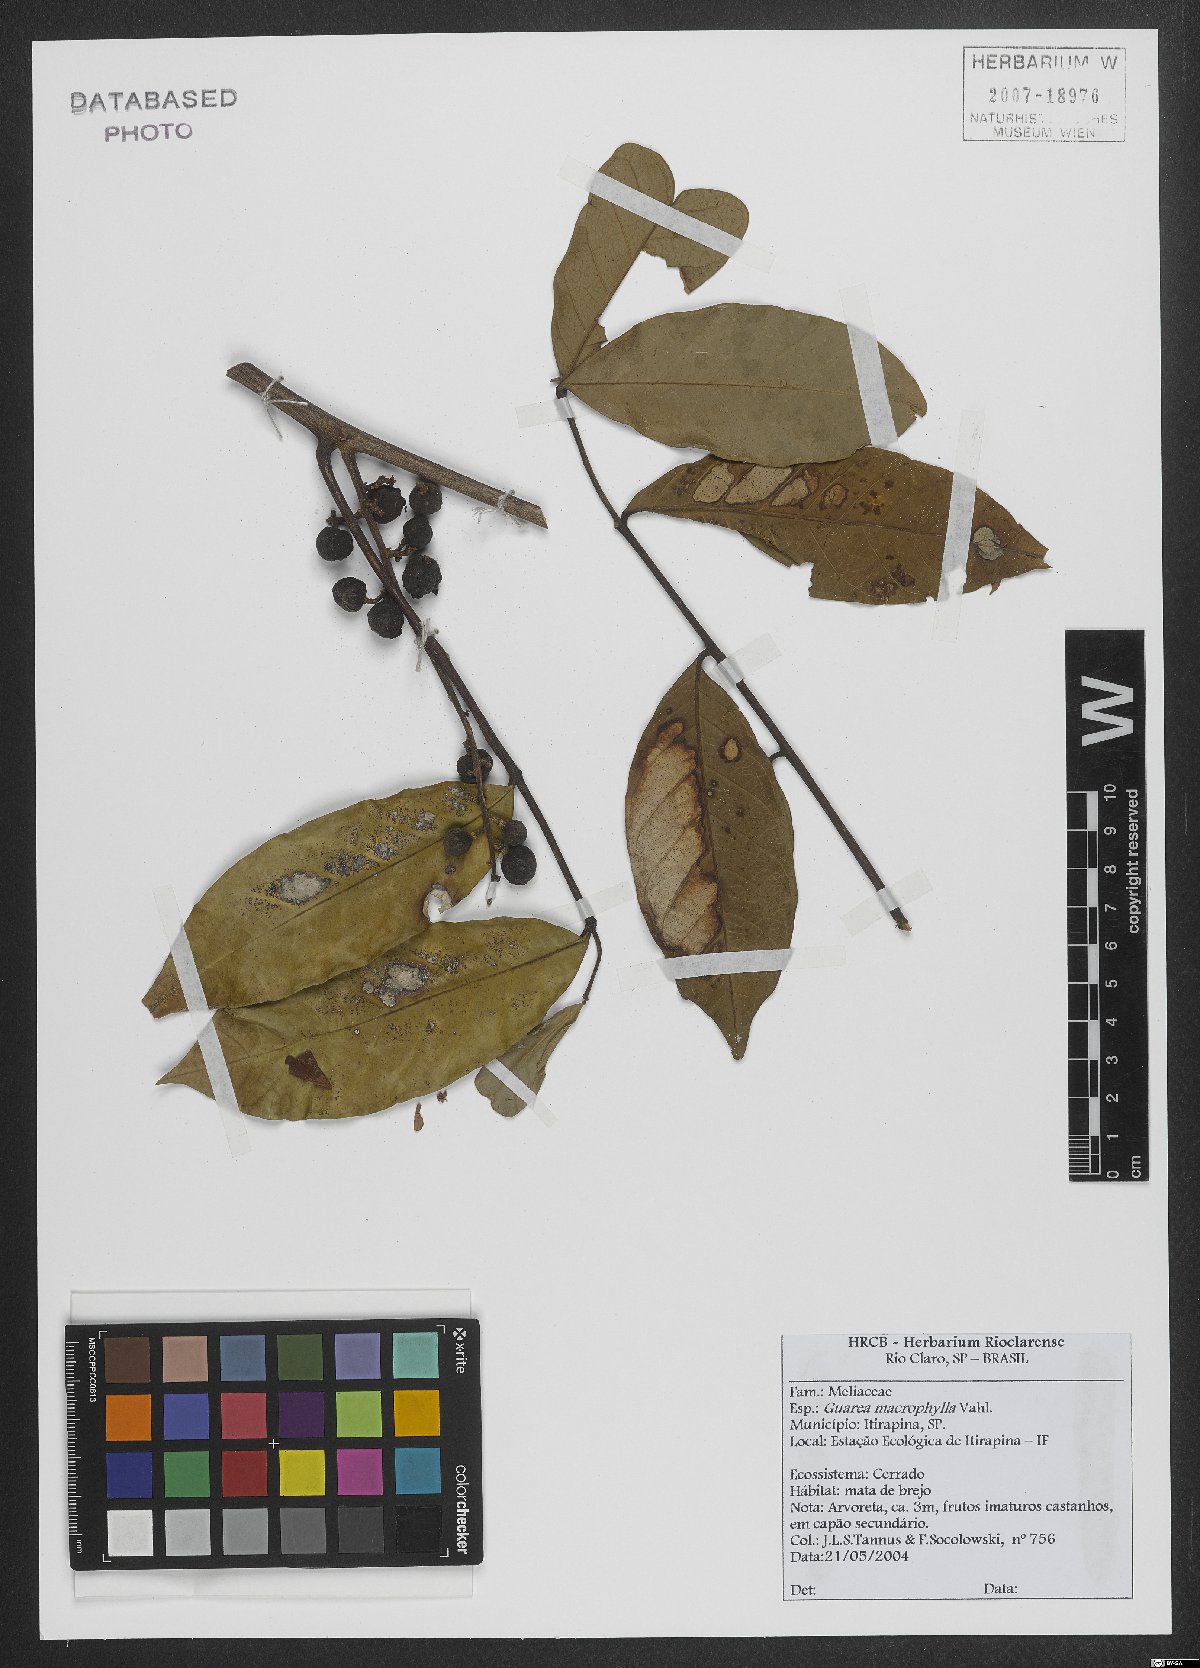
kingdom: Plantae
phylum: Tracheophyta
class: Magnoliopsida
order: Sapindales
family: Meliaceae
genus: Guarea
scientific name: Guarea macrophylla
